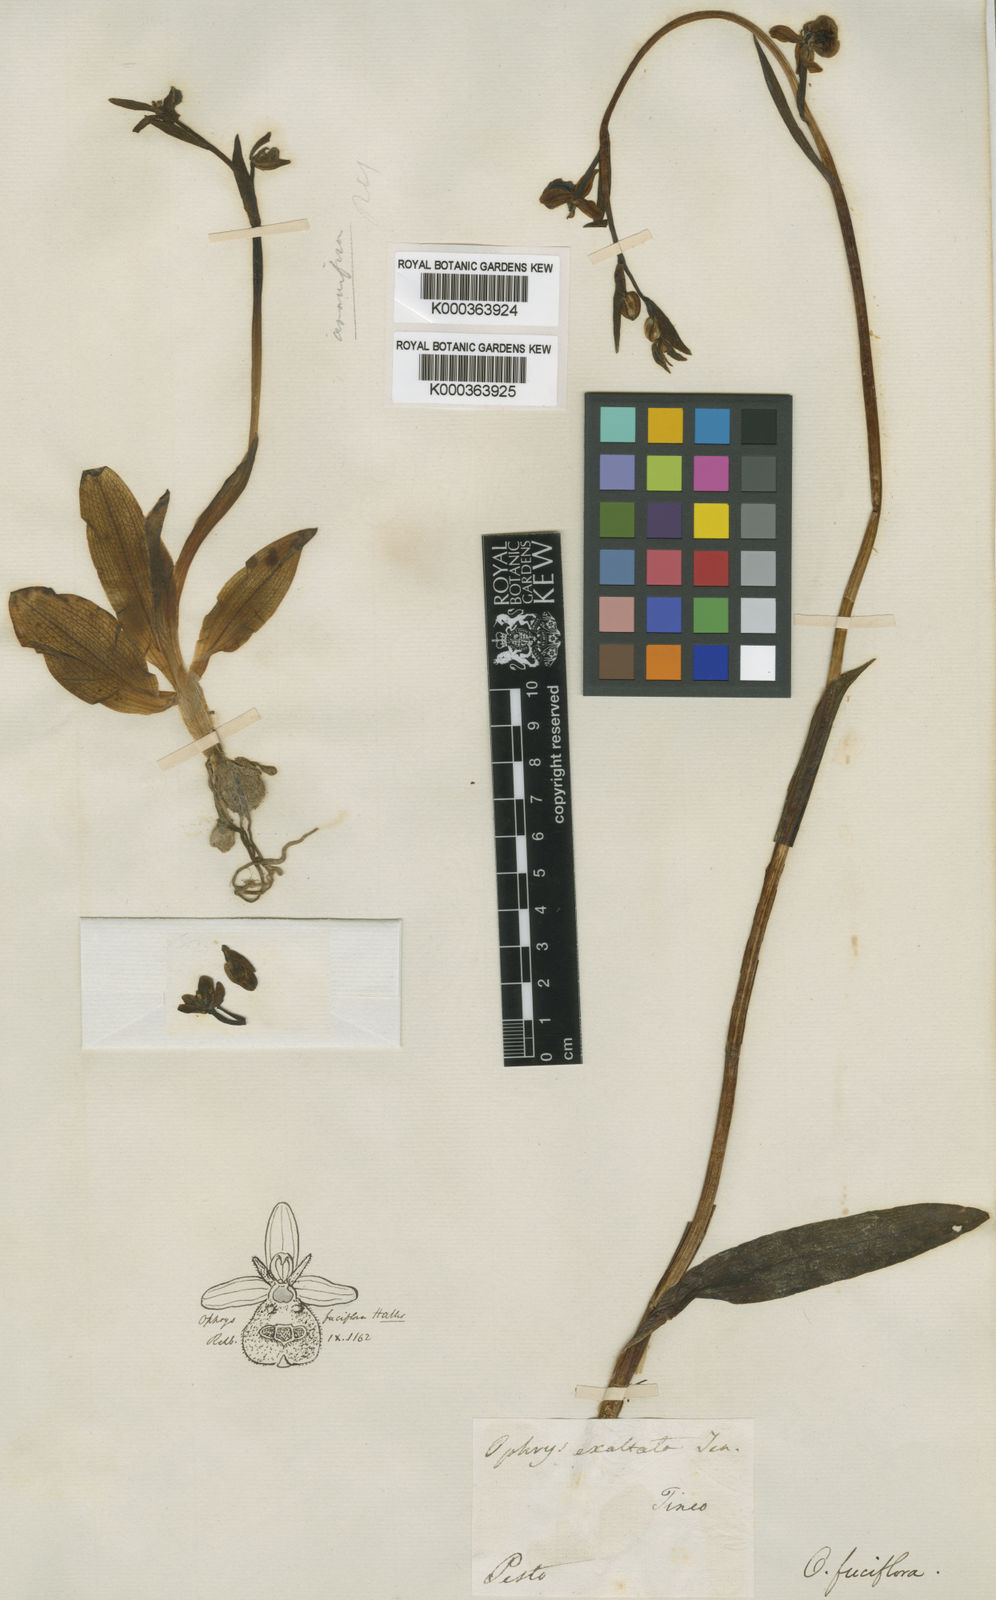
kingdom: Plantae
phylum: Tracheophyta
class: Liliopsida
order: Asparagales
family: Orchidaceae
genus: Ophrys
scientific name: Ophrys holosericea
